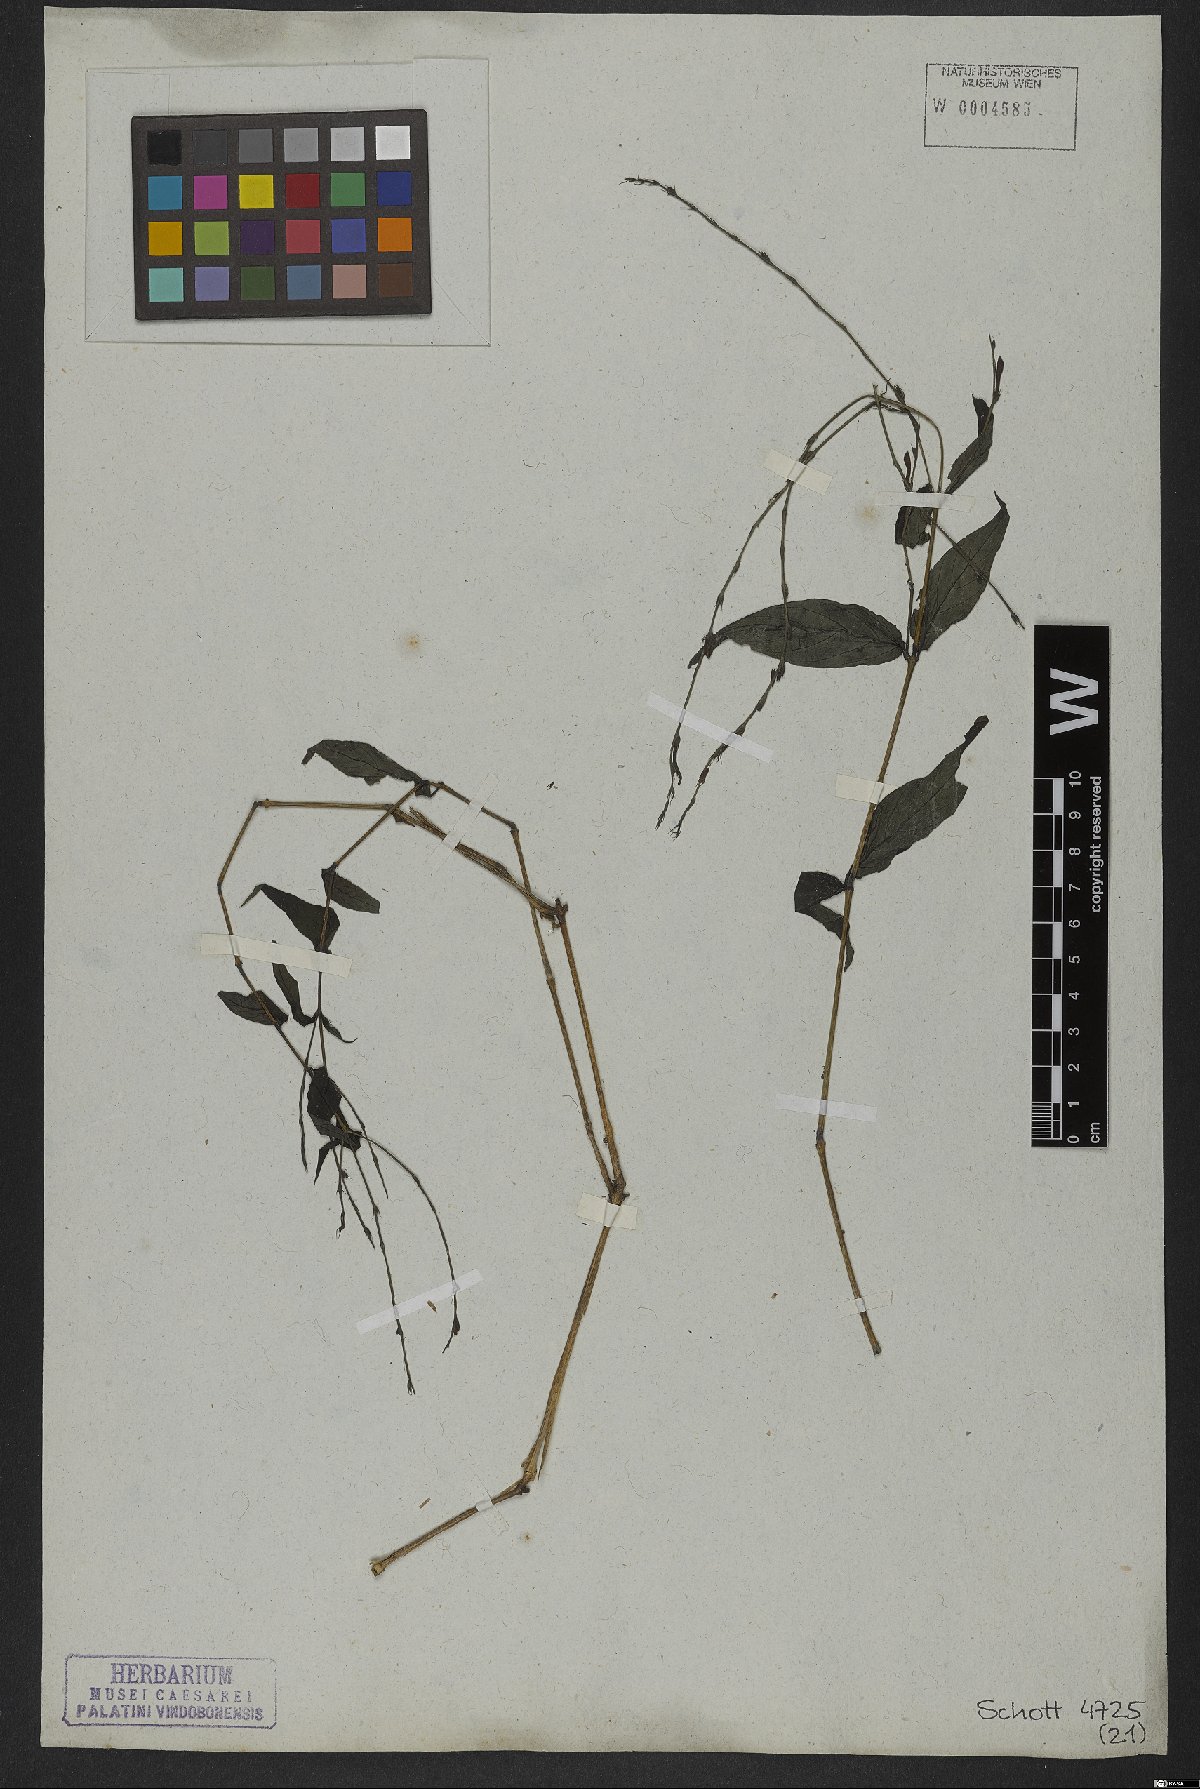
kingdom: Plantae
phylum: Tracheophyta
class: Magnoliopsida
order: Lamiales
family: Acanthaceae
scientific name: Acanthaceae
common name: Acanthaceae
